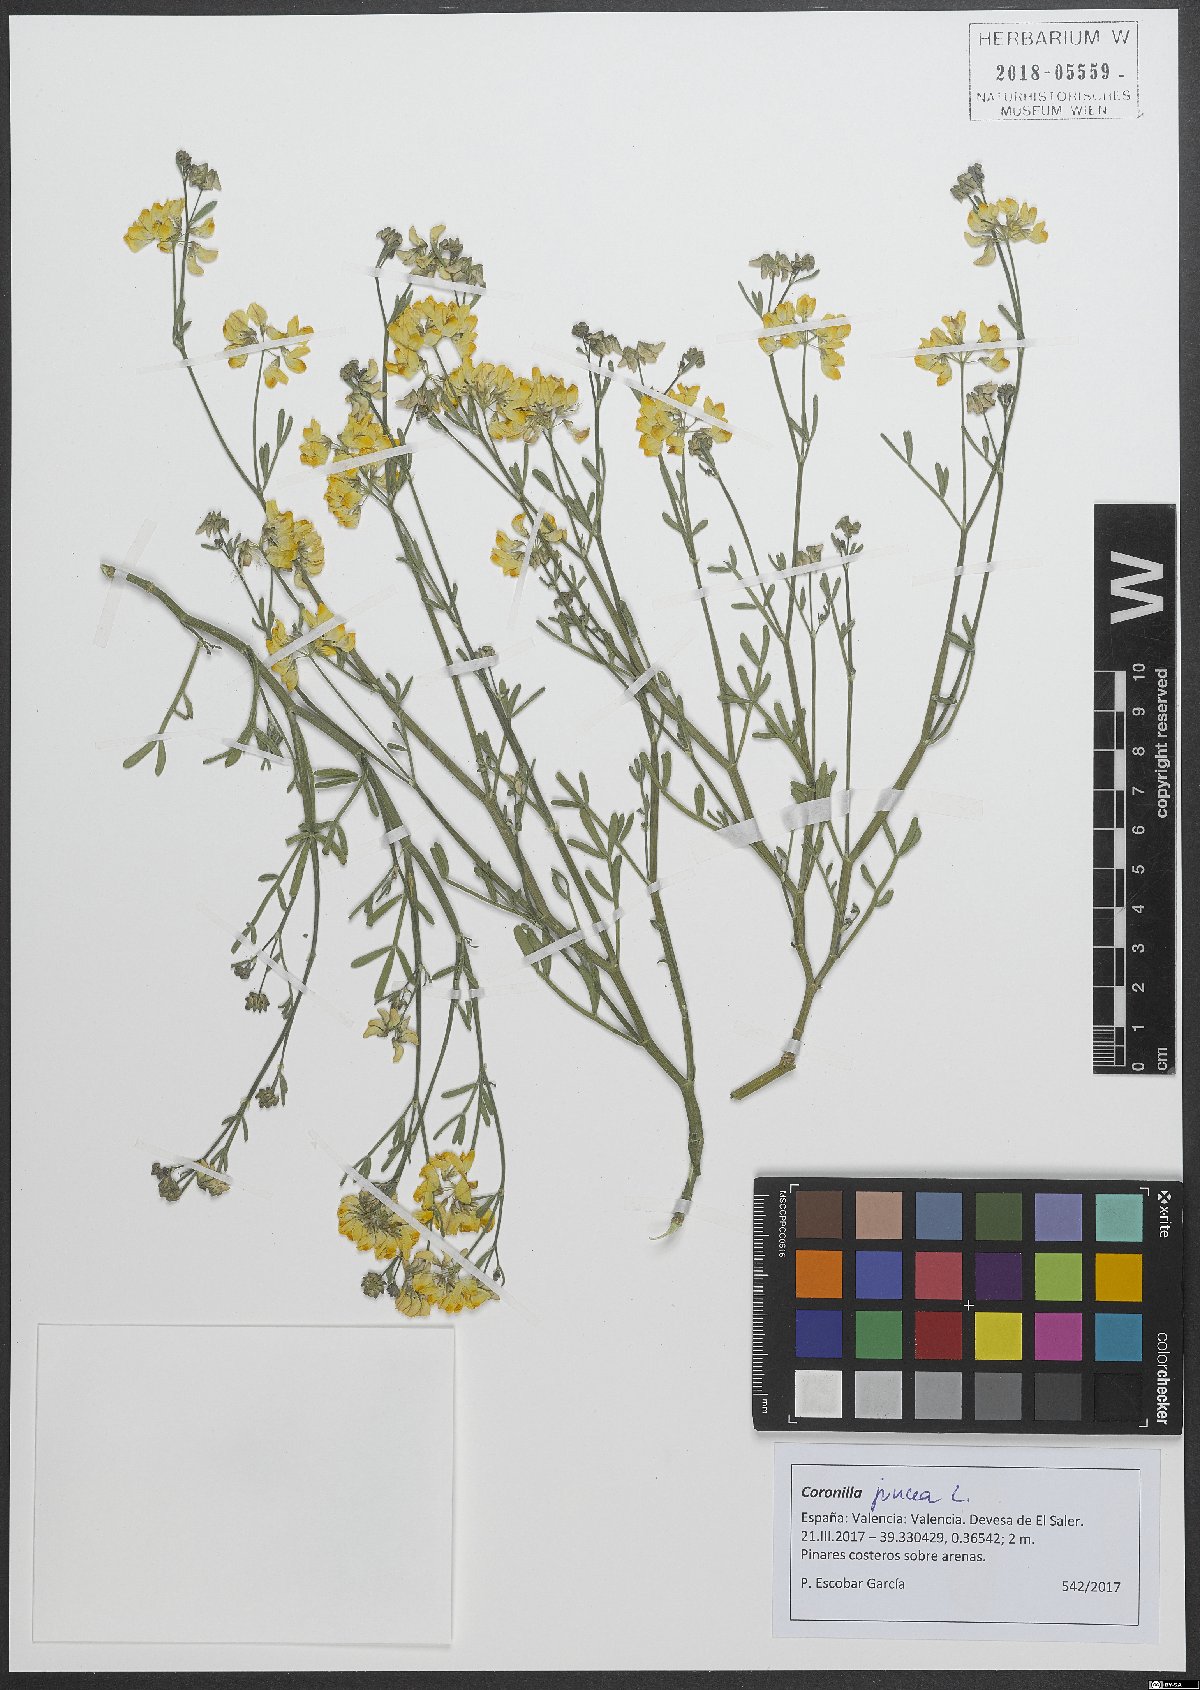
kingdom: Plantae
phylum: Tracheophyta
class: Magnoliopsida
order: Fabales
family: Fabaceae
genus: Coronilla
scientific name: Coronilla juncea
